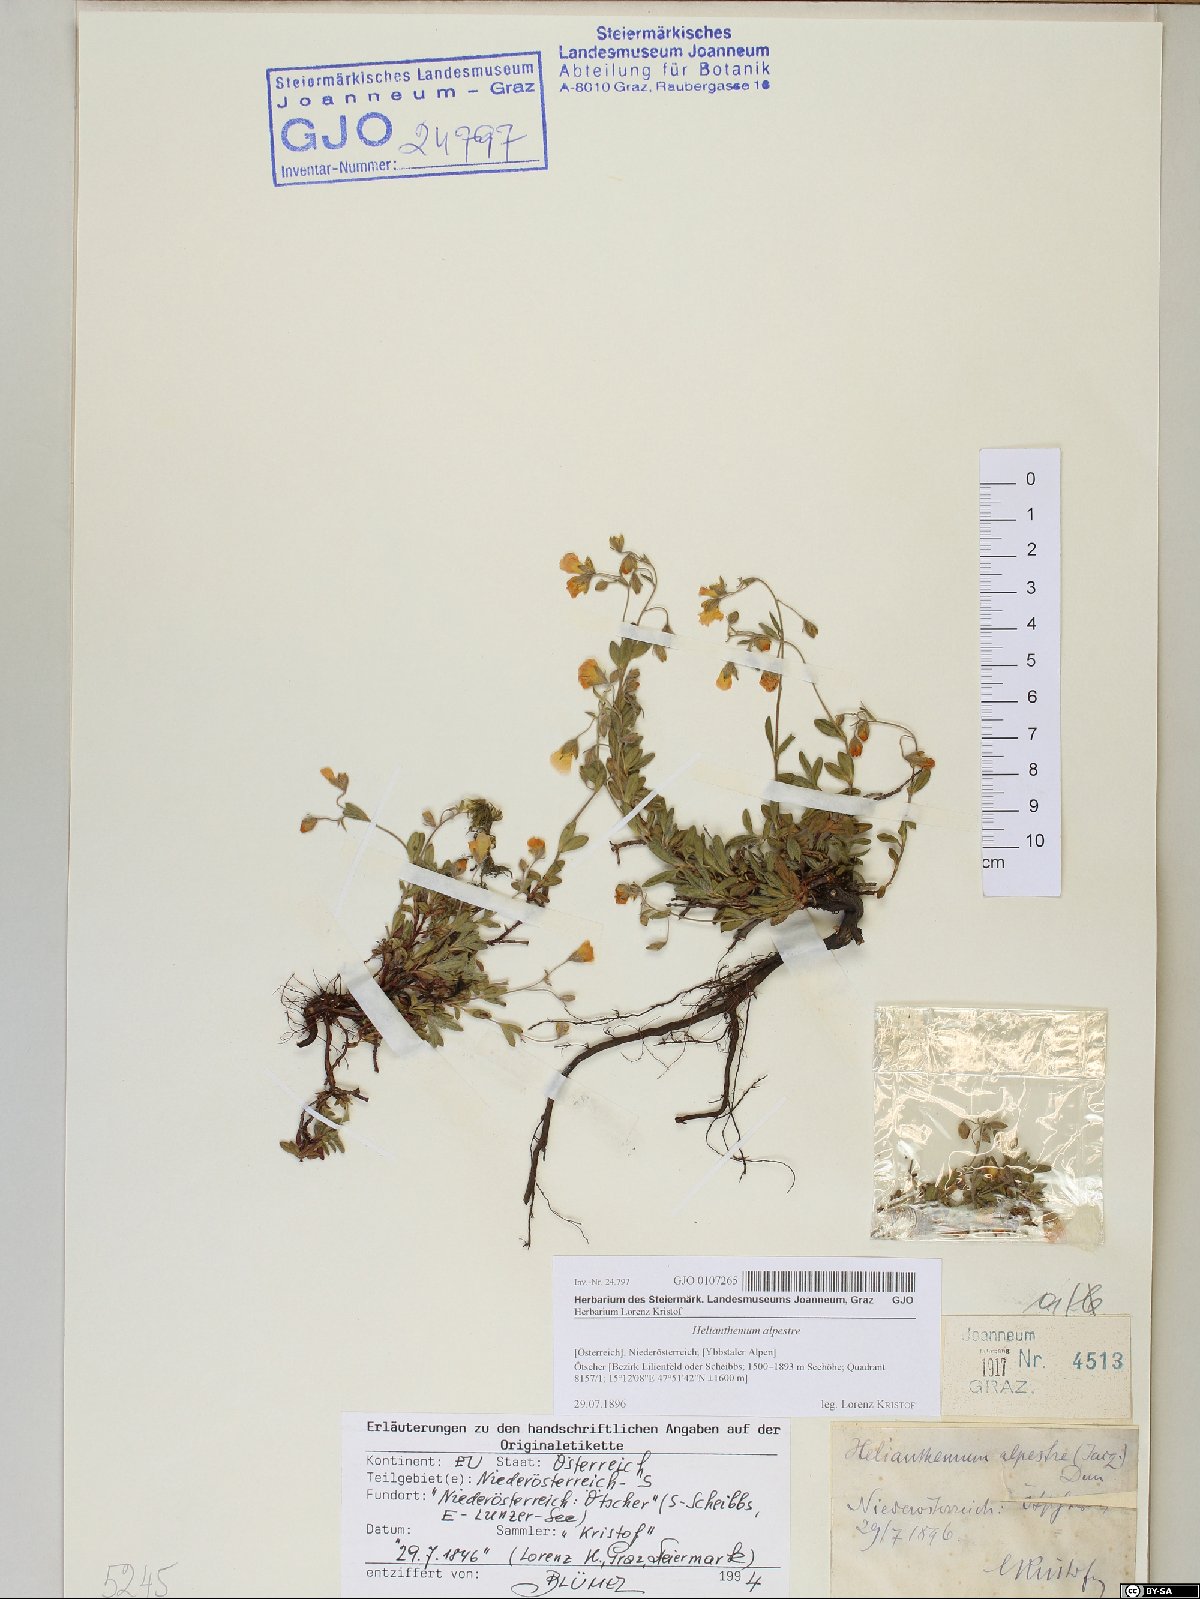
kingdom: Plantae
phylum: Tracheophyta
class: Magnoliopsida
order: Malvales
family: Cistaceae
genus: Helianthemum
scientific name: Helianthemum alpestre
